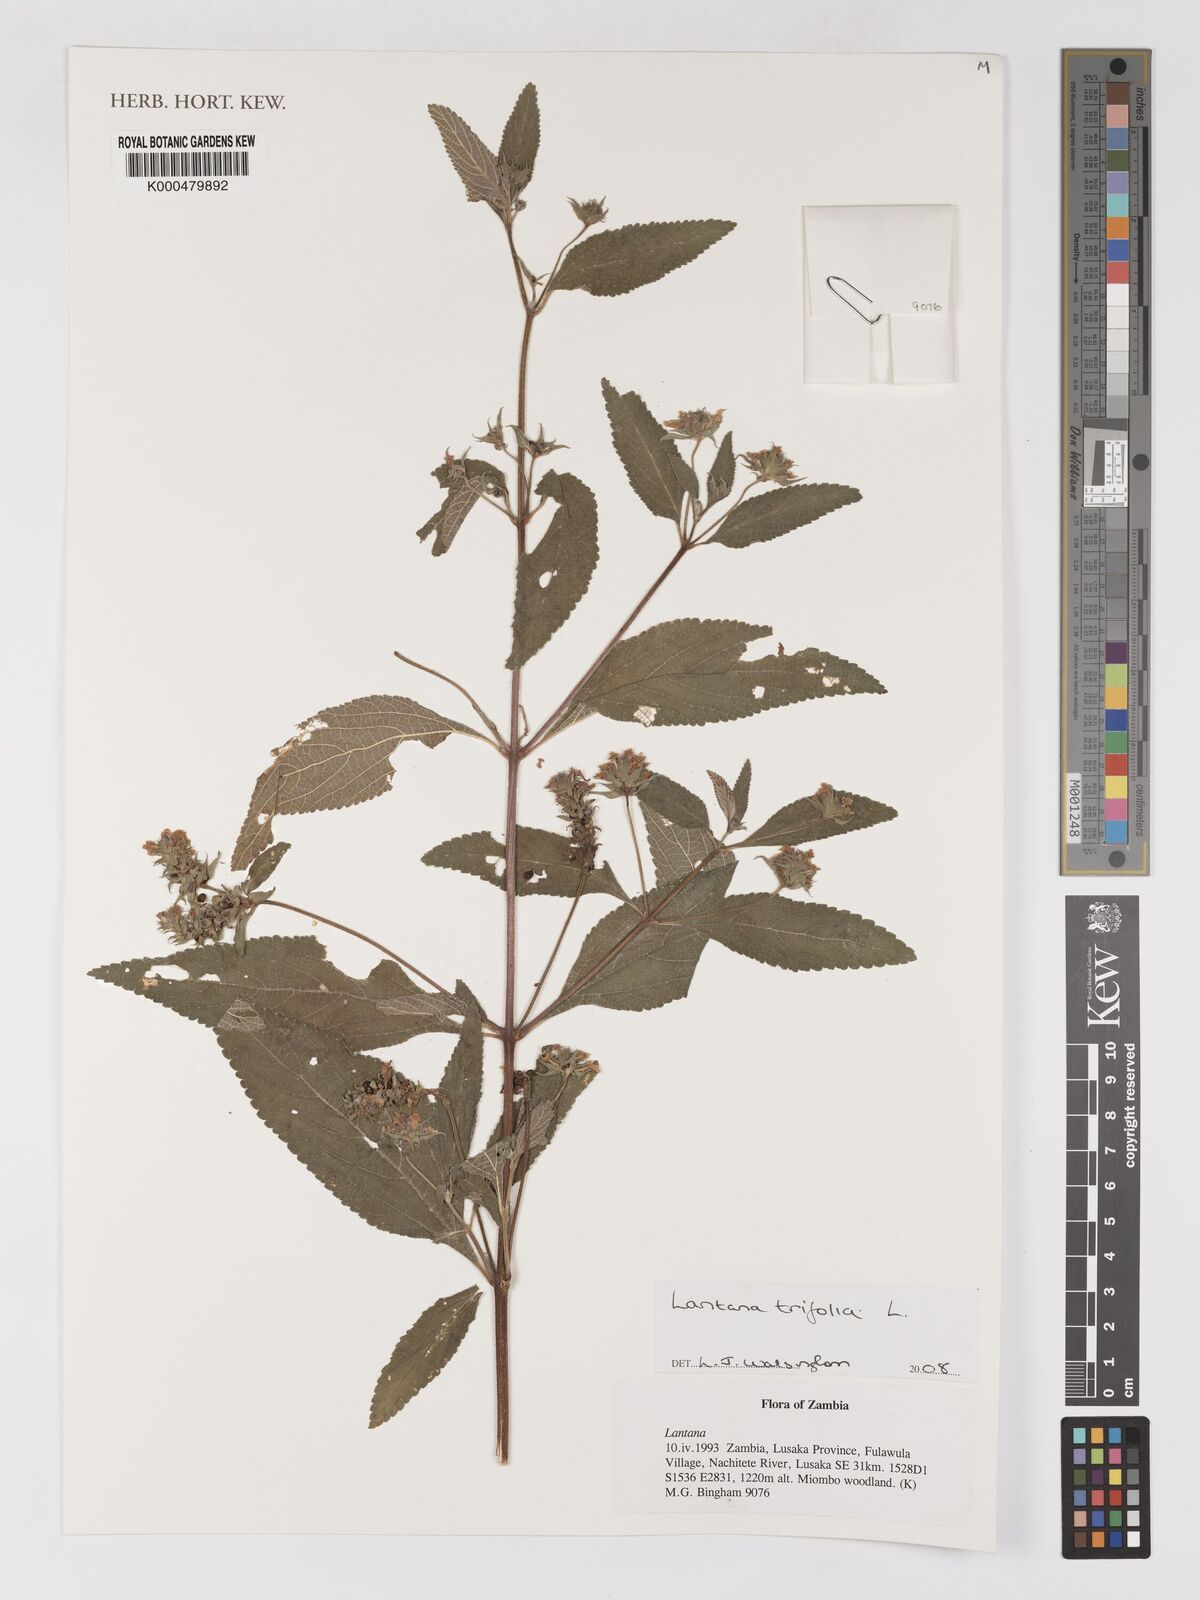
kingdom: Plantae
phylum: Tracheophyta
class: Magnoliopsida
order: Lamiales
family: Verbenaceae
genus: Lantana
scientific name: Lantana trifolia
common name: Sweet-sage
